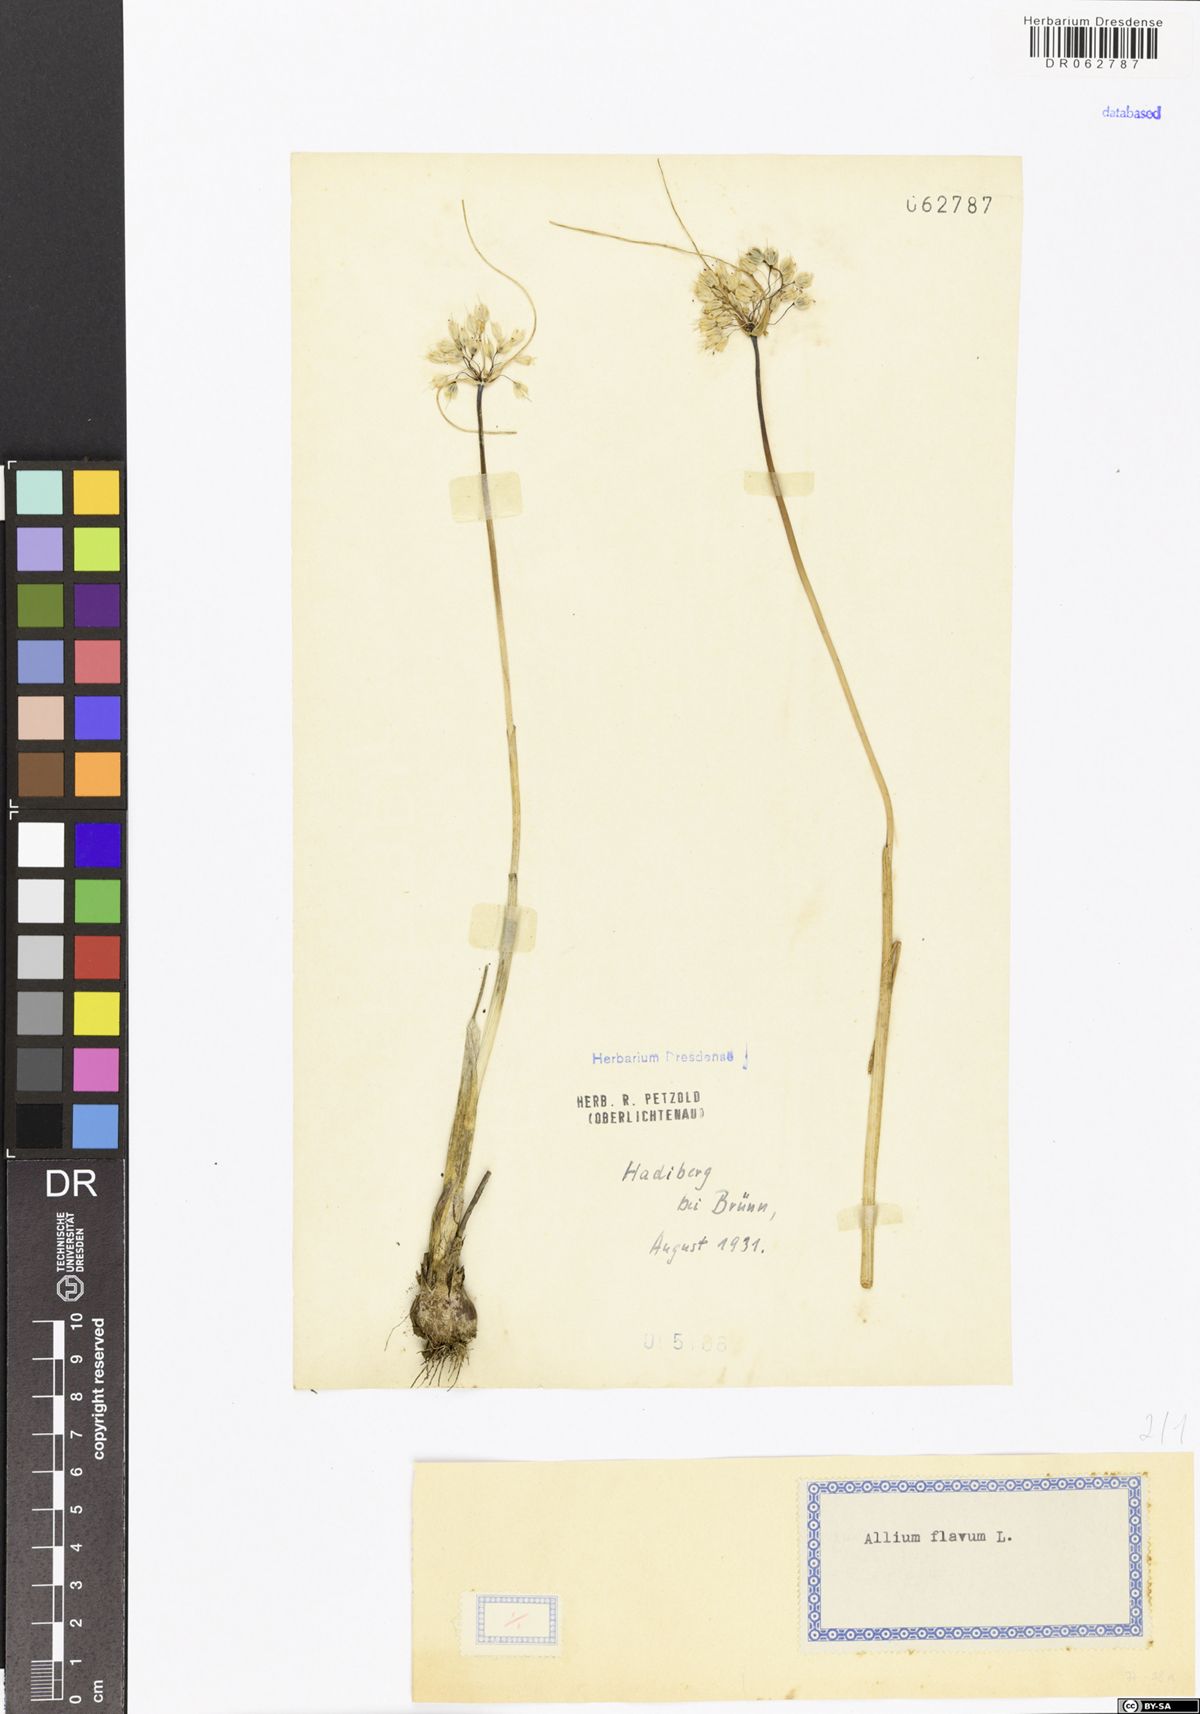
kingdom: Plantae
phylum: Tracheophyta
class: Liliopsida
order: Asparagales
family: Amaryllidaceae
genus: Allium
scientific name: Allium flavum
